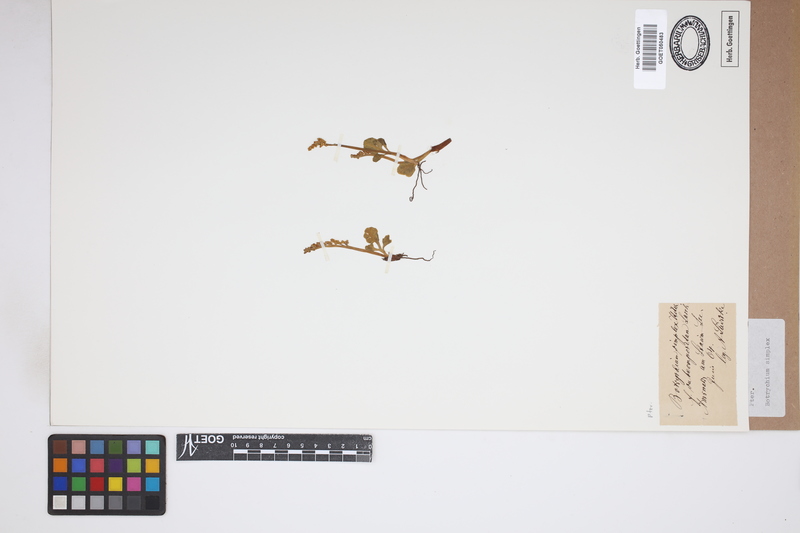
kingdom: Plantae
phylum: Tracheophyta
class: Polypodiopsida
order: Ophioglossales
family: Ophioglossaceae
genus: Botrychium
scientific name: Botrychium simplex
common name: Least moonwort
